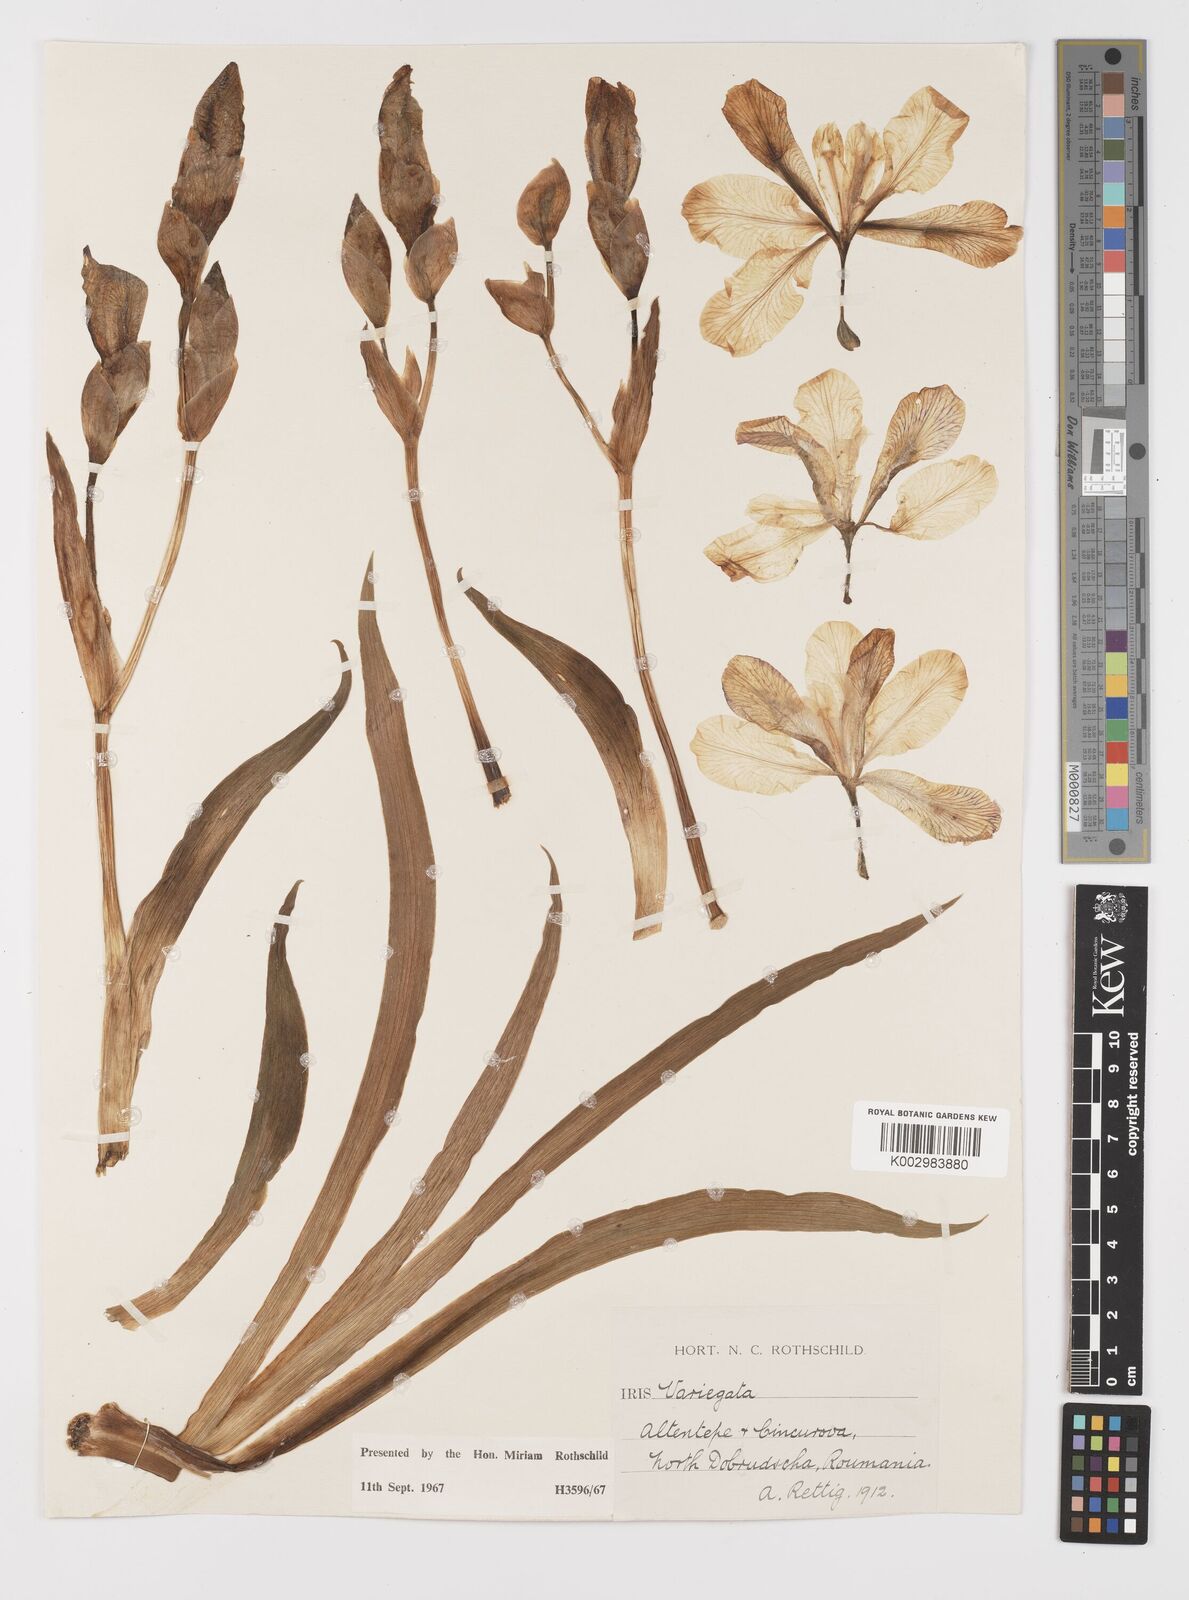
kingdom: Plantae
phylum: Tracheophyta
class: Liliopsida
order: Asparagales
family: Iridaceae
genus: Iris
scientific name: Iris variegata
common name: Hungarian iris
